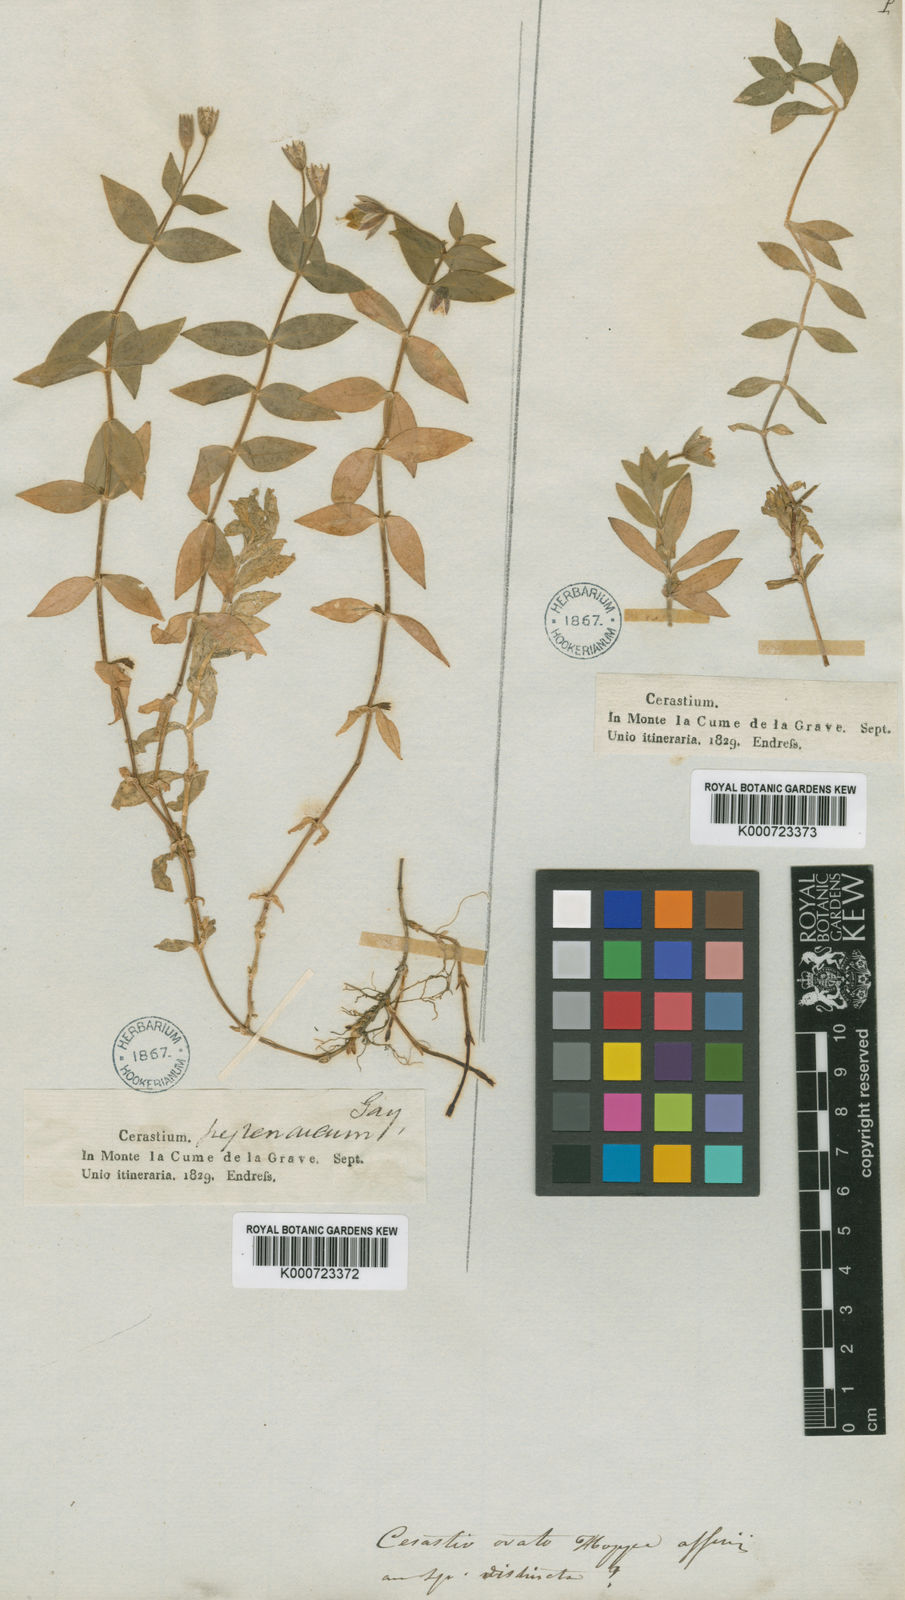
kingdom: Plantae
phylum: Tracheophyta
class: Magnoliopsida
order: Caryophyllales
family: Caryophyllaceae
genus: Cerastium
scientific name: Cerastium pyrenaicum
